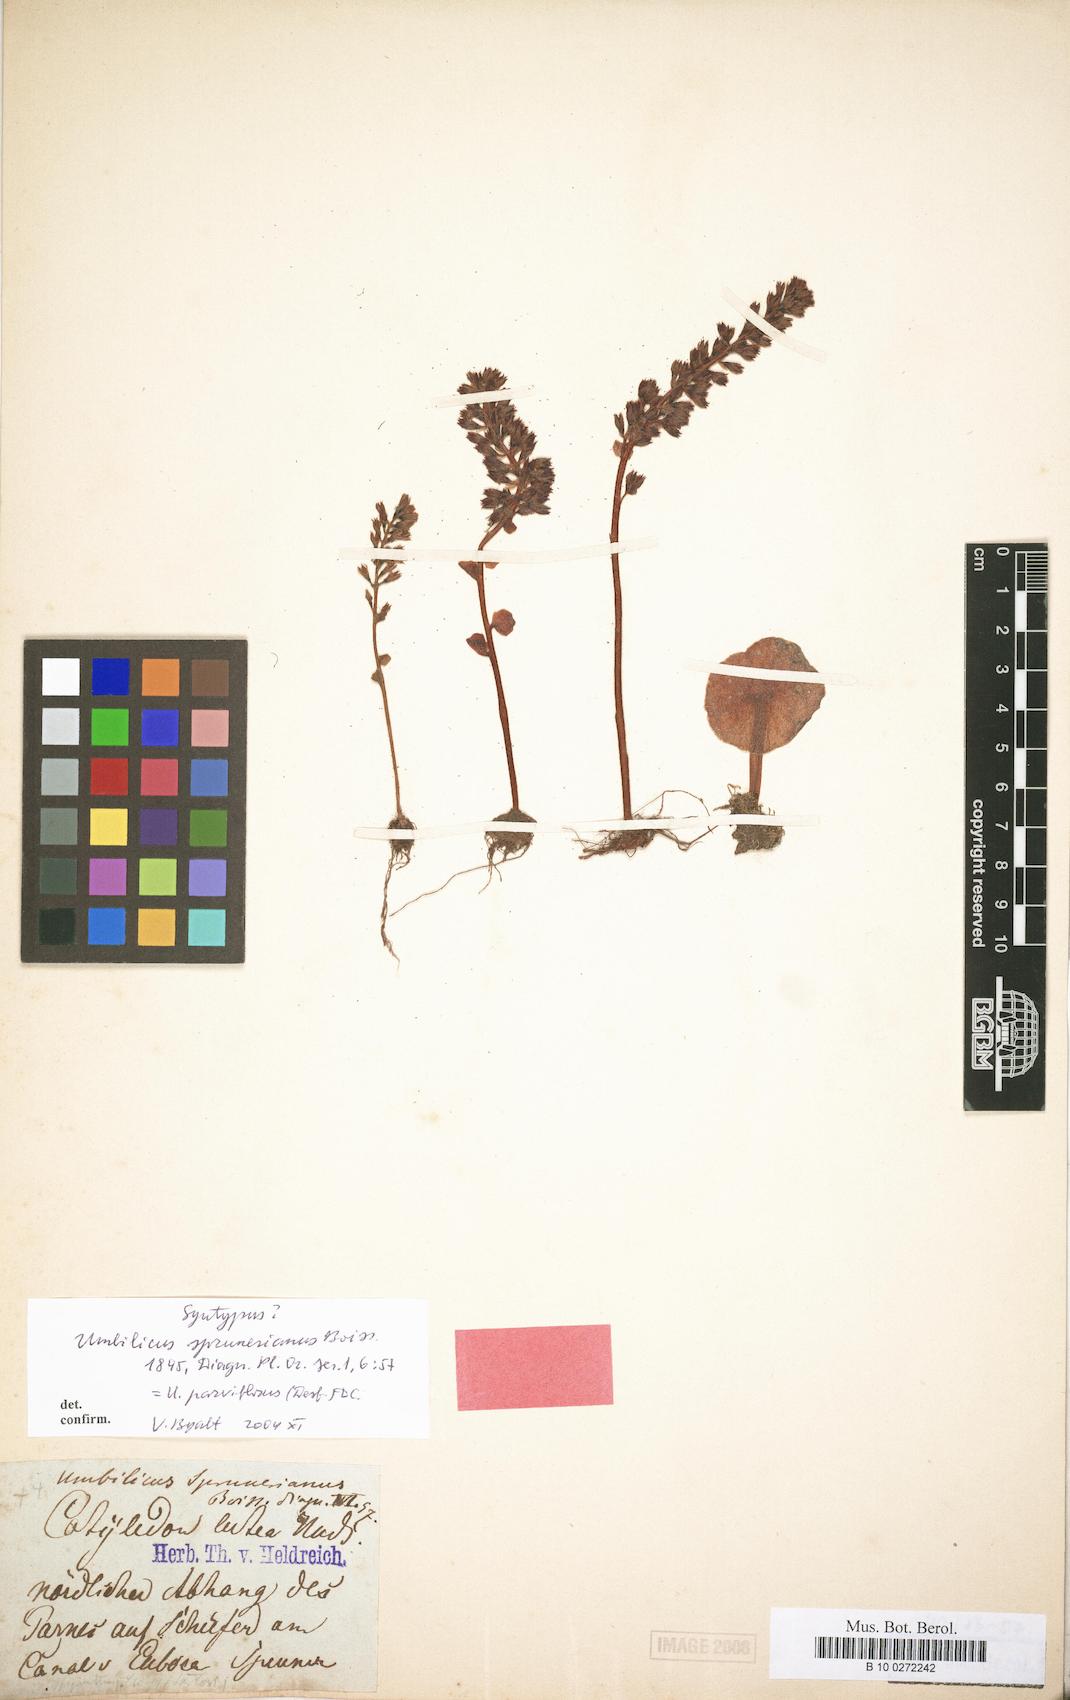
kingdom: Plantae
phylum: Tracheophyta
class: Magnoliopsida
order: Saxifragales
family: Crassulaceae
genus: Umbilicus
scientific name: Umbilicus parviflorus
